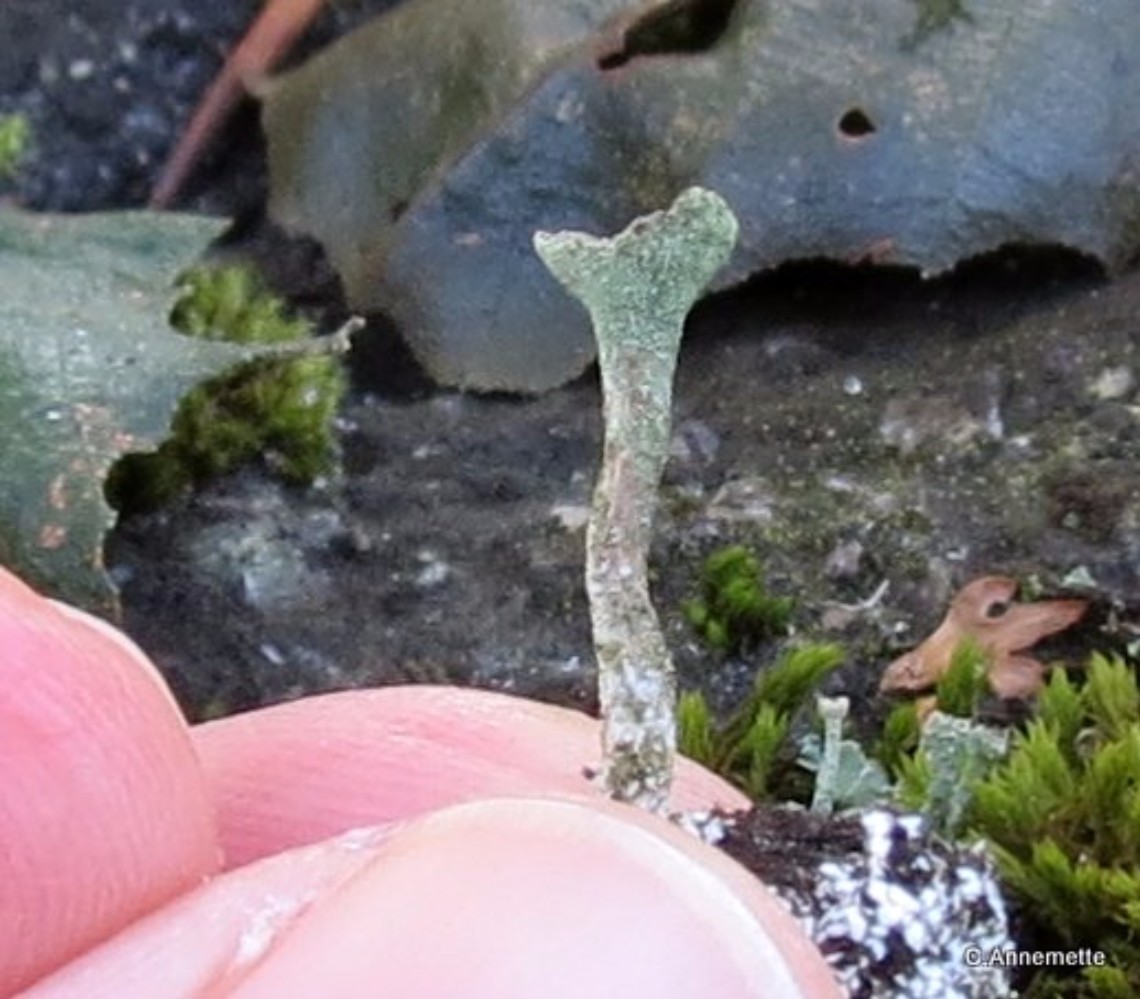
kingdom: Fungi
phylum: Ascomycota
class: Lecanoromycetes
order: Lecanorales
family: Cladoniaceae
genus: Cladonia
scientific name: Cladonia
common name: brungrøn bægerlav
